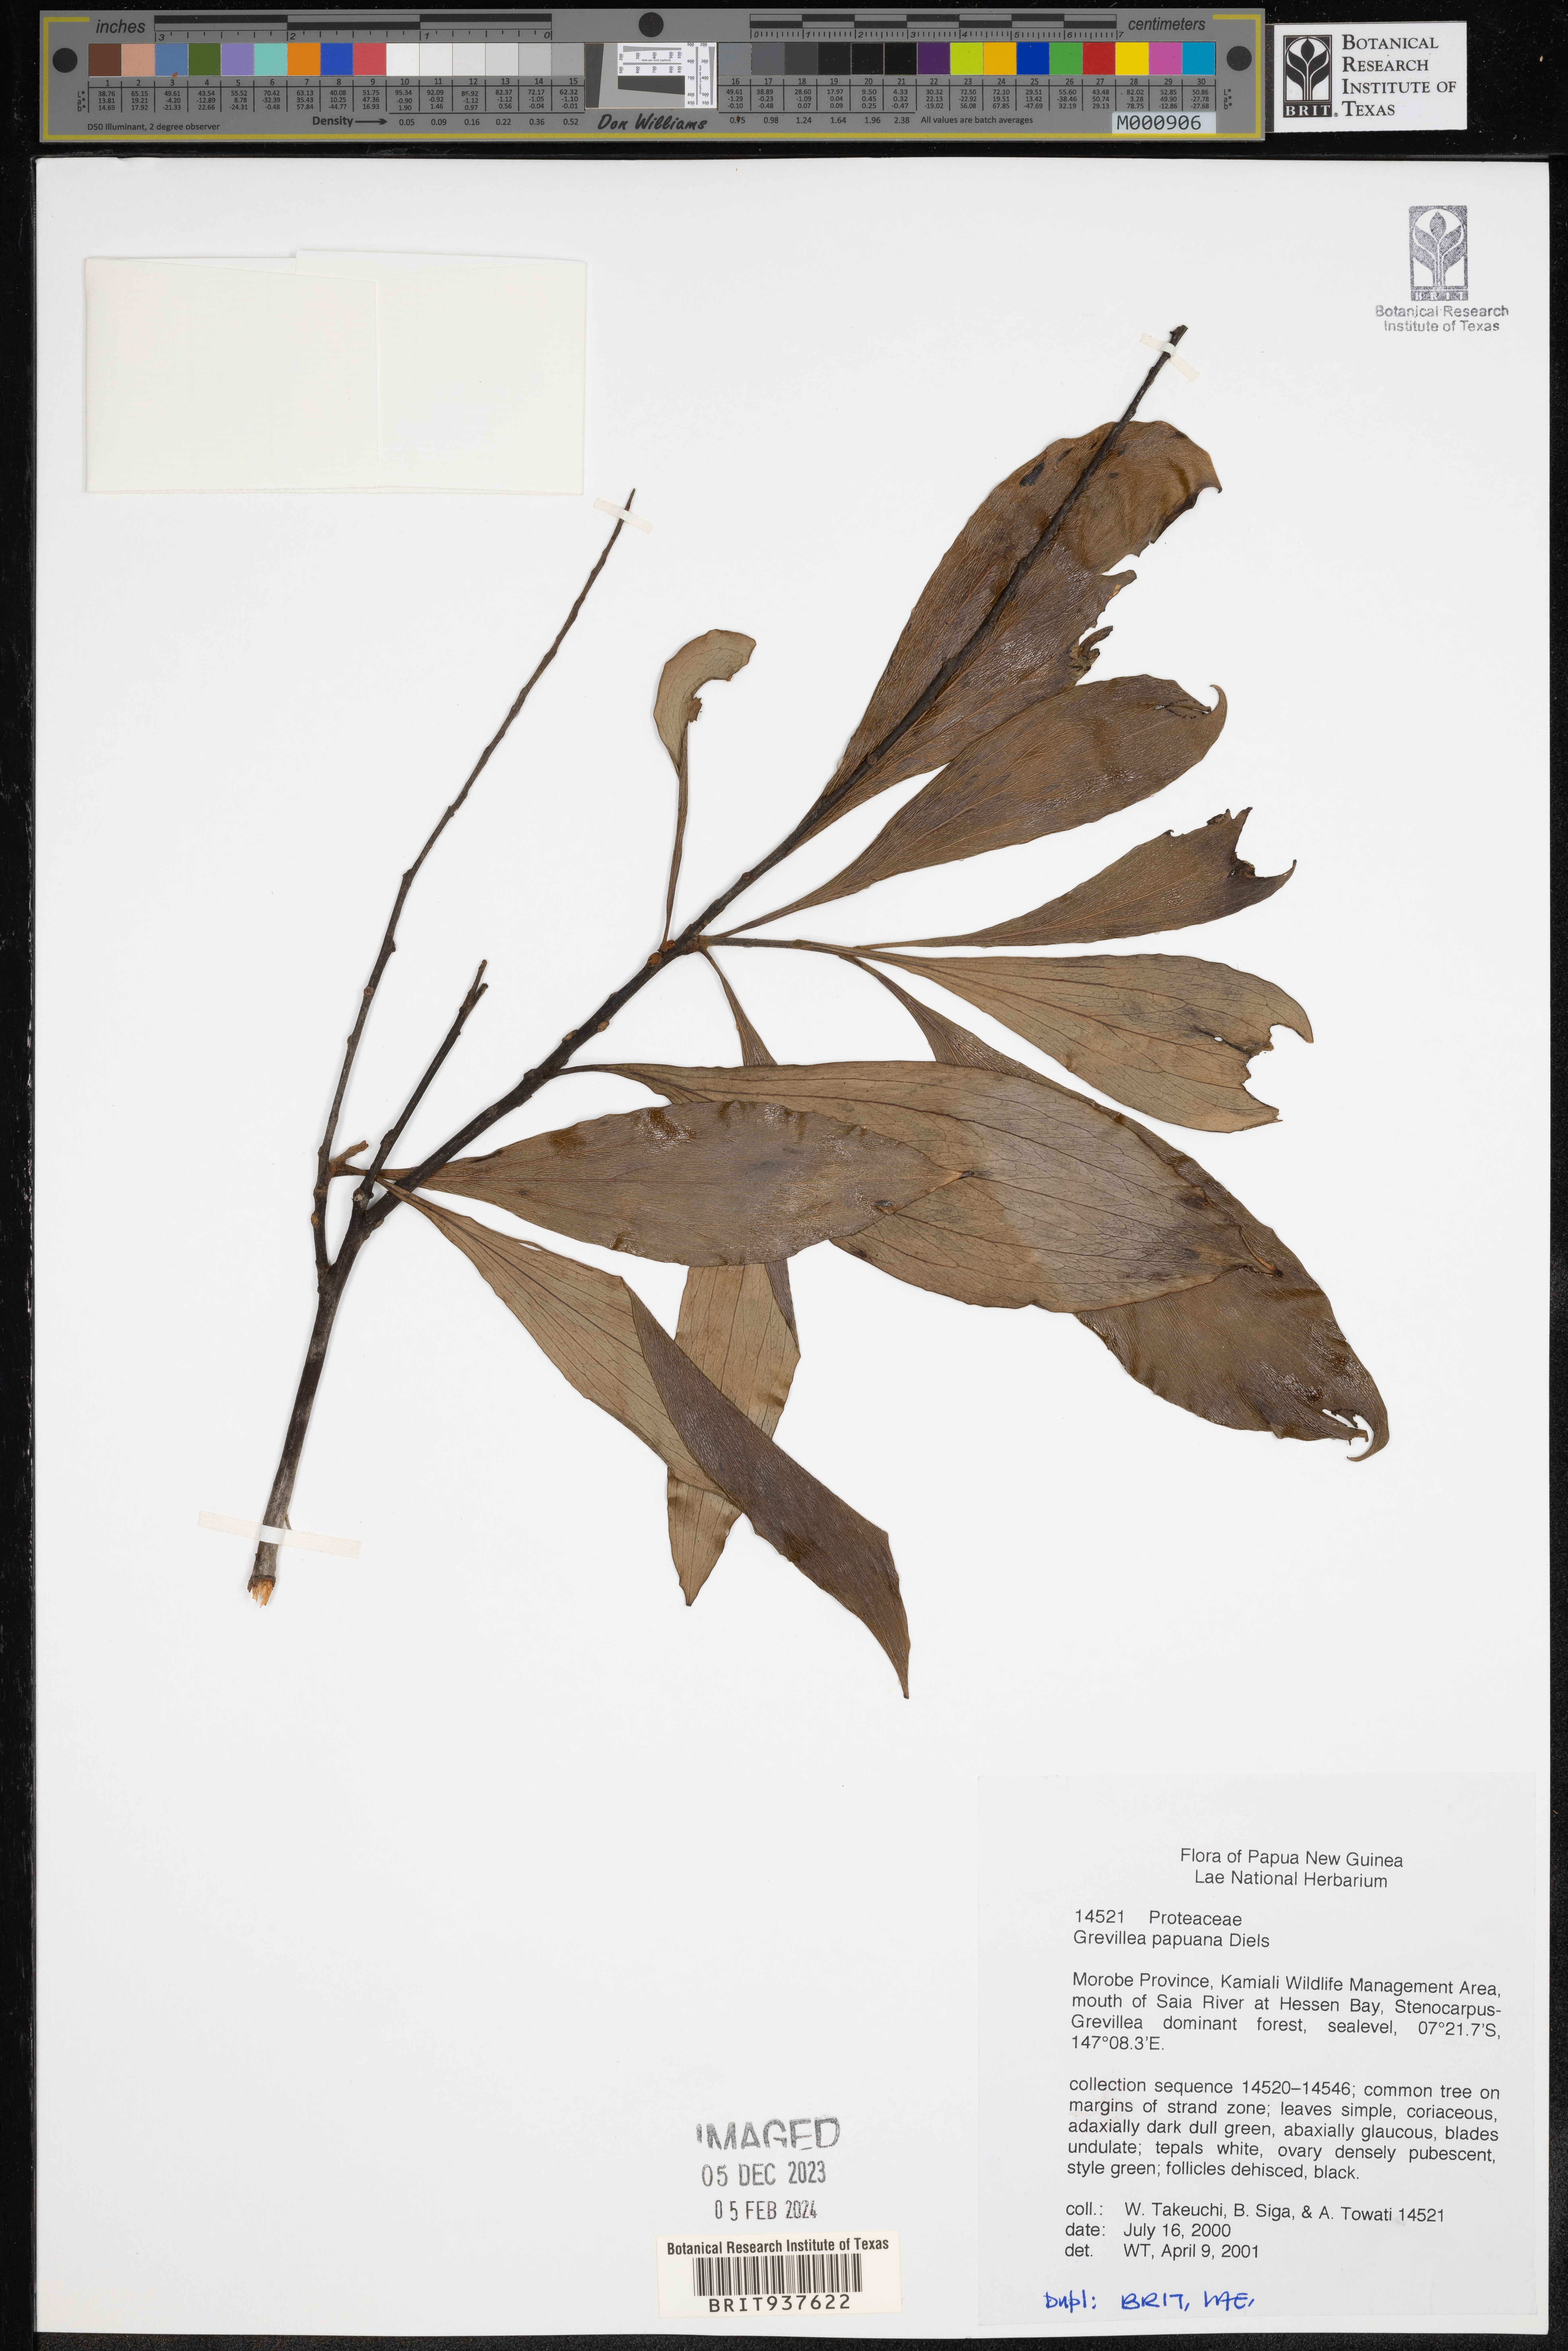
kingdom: Plantae
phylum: Tracheophyta
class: Magnoliopsida
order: Proteales
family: Proteaceae
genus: Grevillea
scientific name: Grevillea
